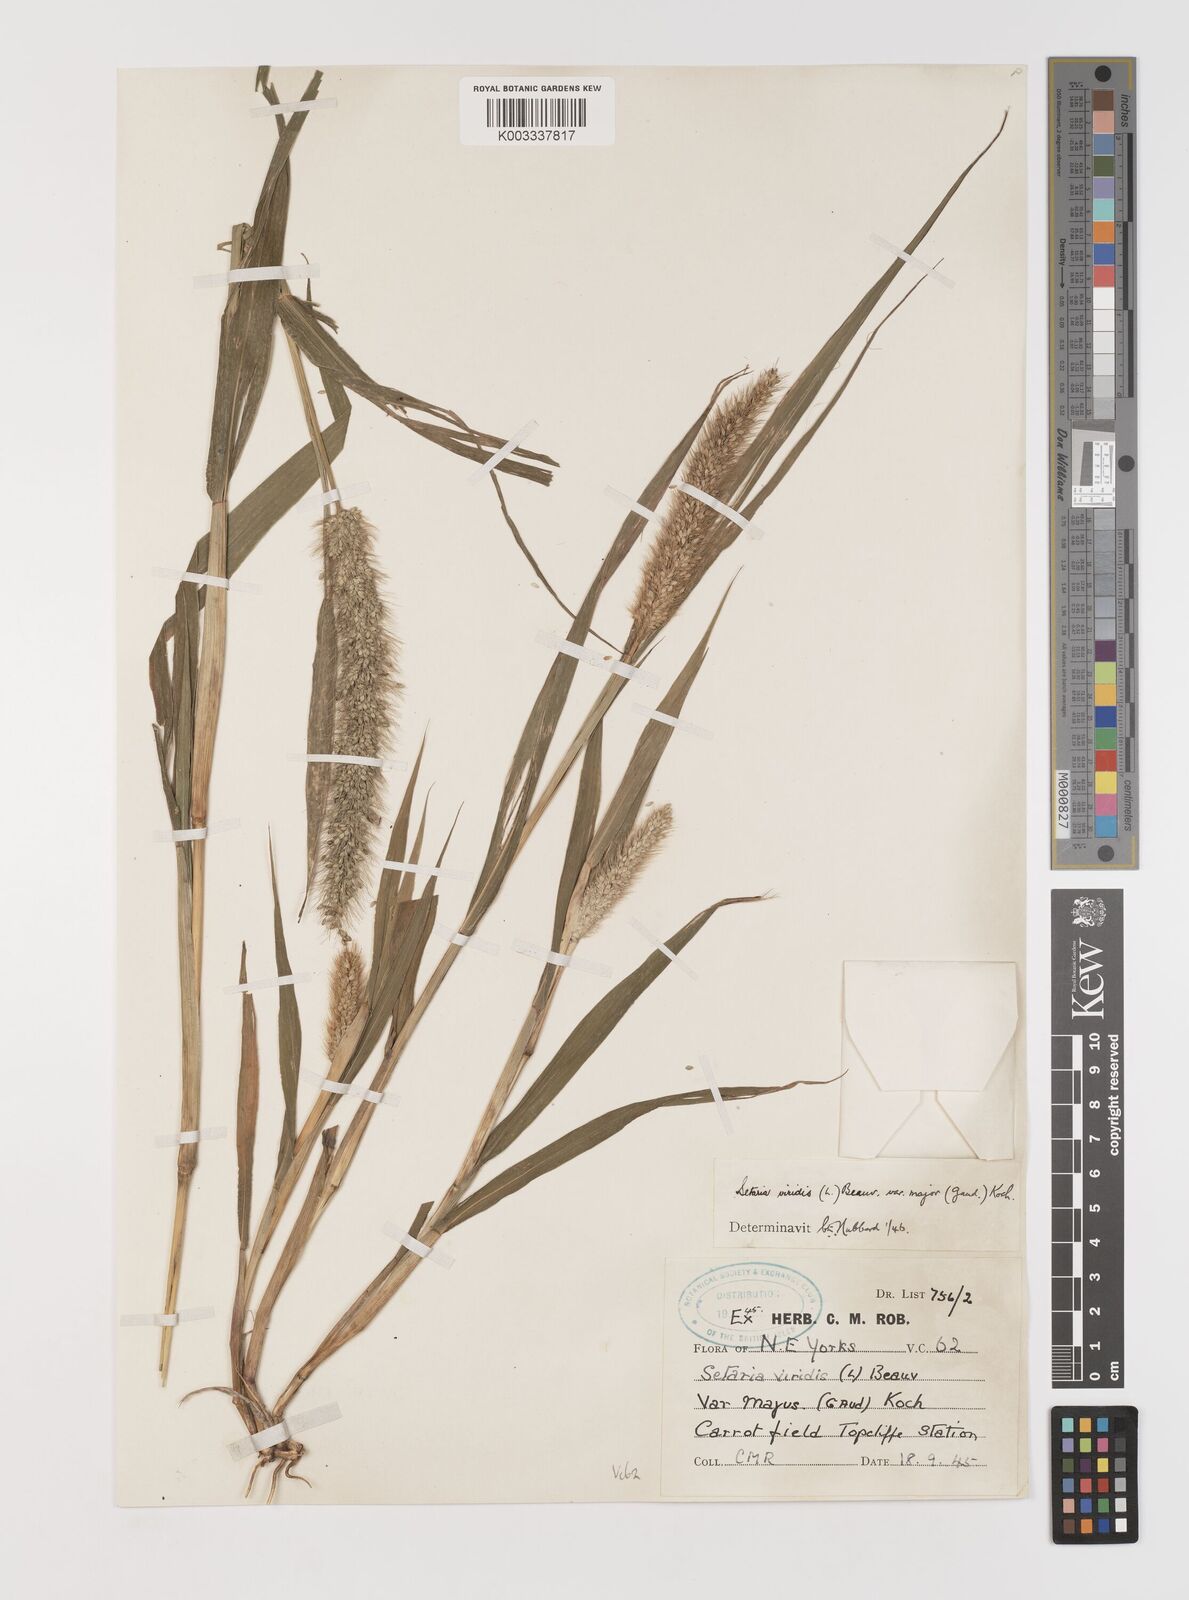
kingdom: Plantae
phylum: Tracheophyta
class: Liliopsida
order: Poales
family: Poaceae
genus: Setaria
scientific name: Setaria viridis
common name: Green bristlegrass
